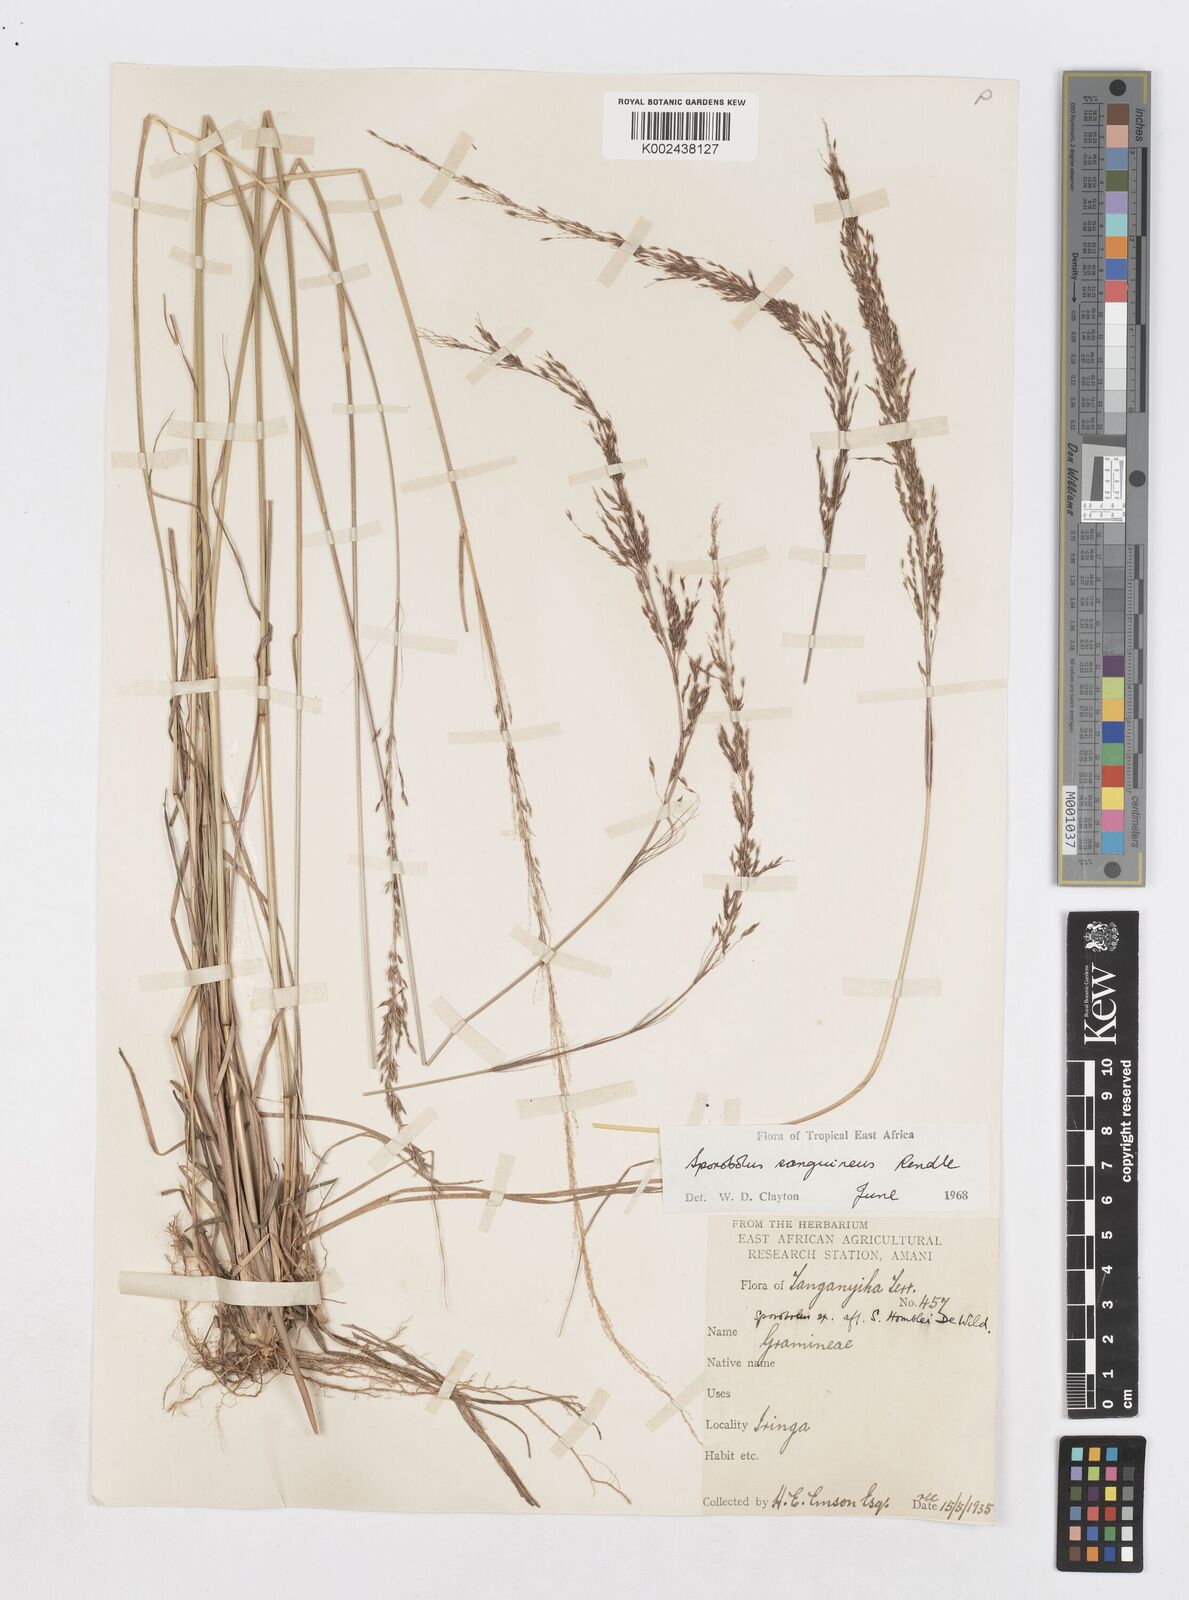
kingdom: Plantae
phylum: Tracheophyta
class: Liliopsida
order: Poales
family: Poaceae
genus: Sporobolus
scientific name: Sporobolus sanguineus
